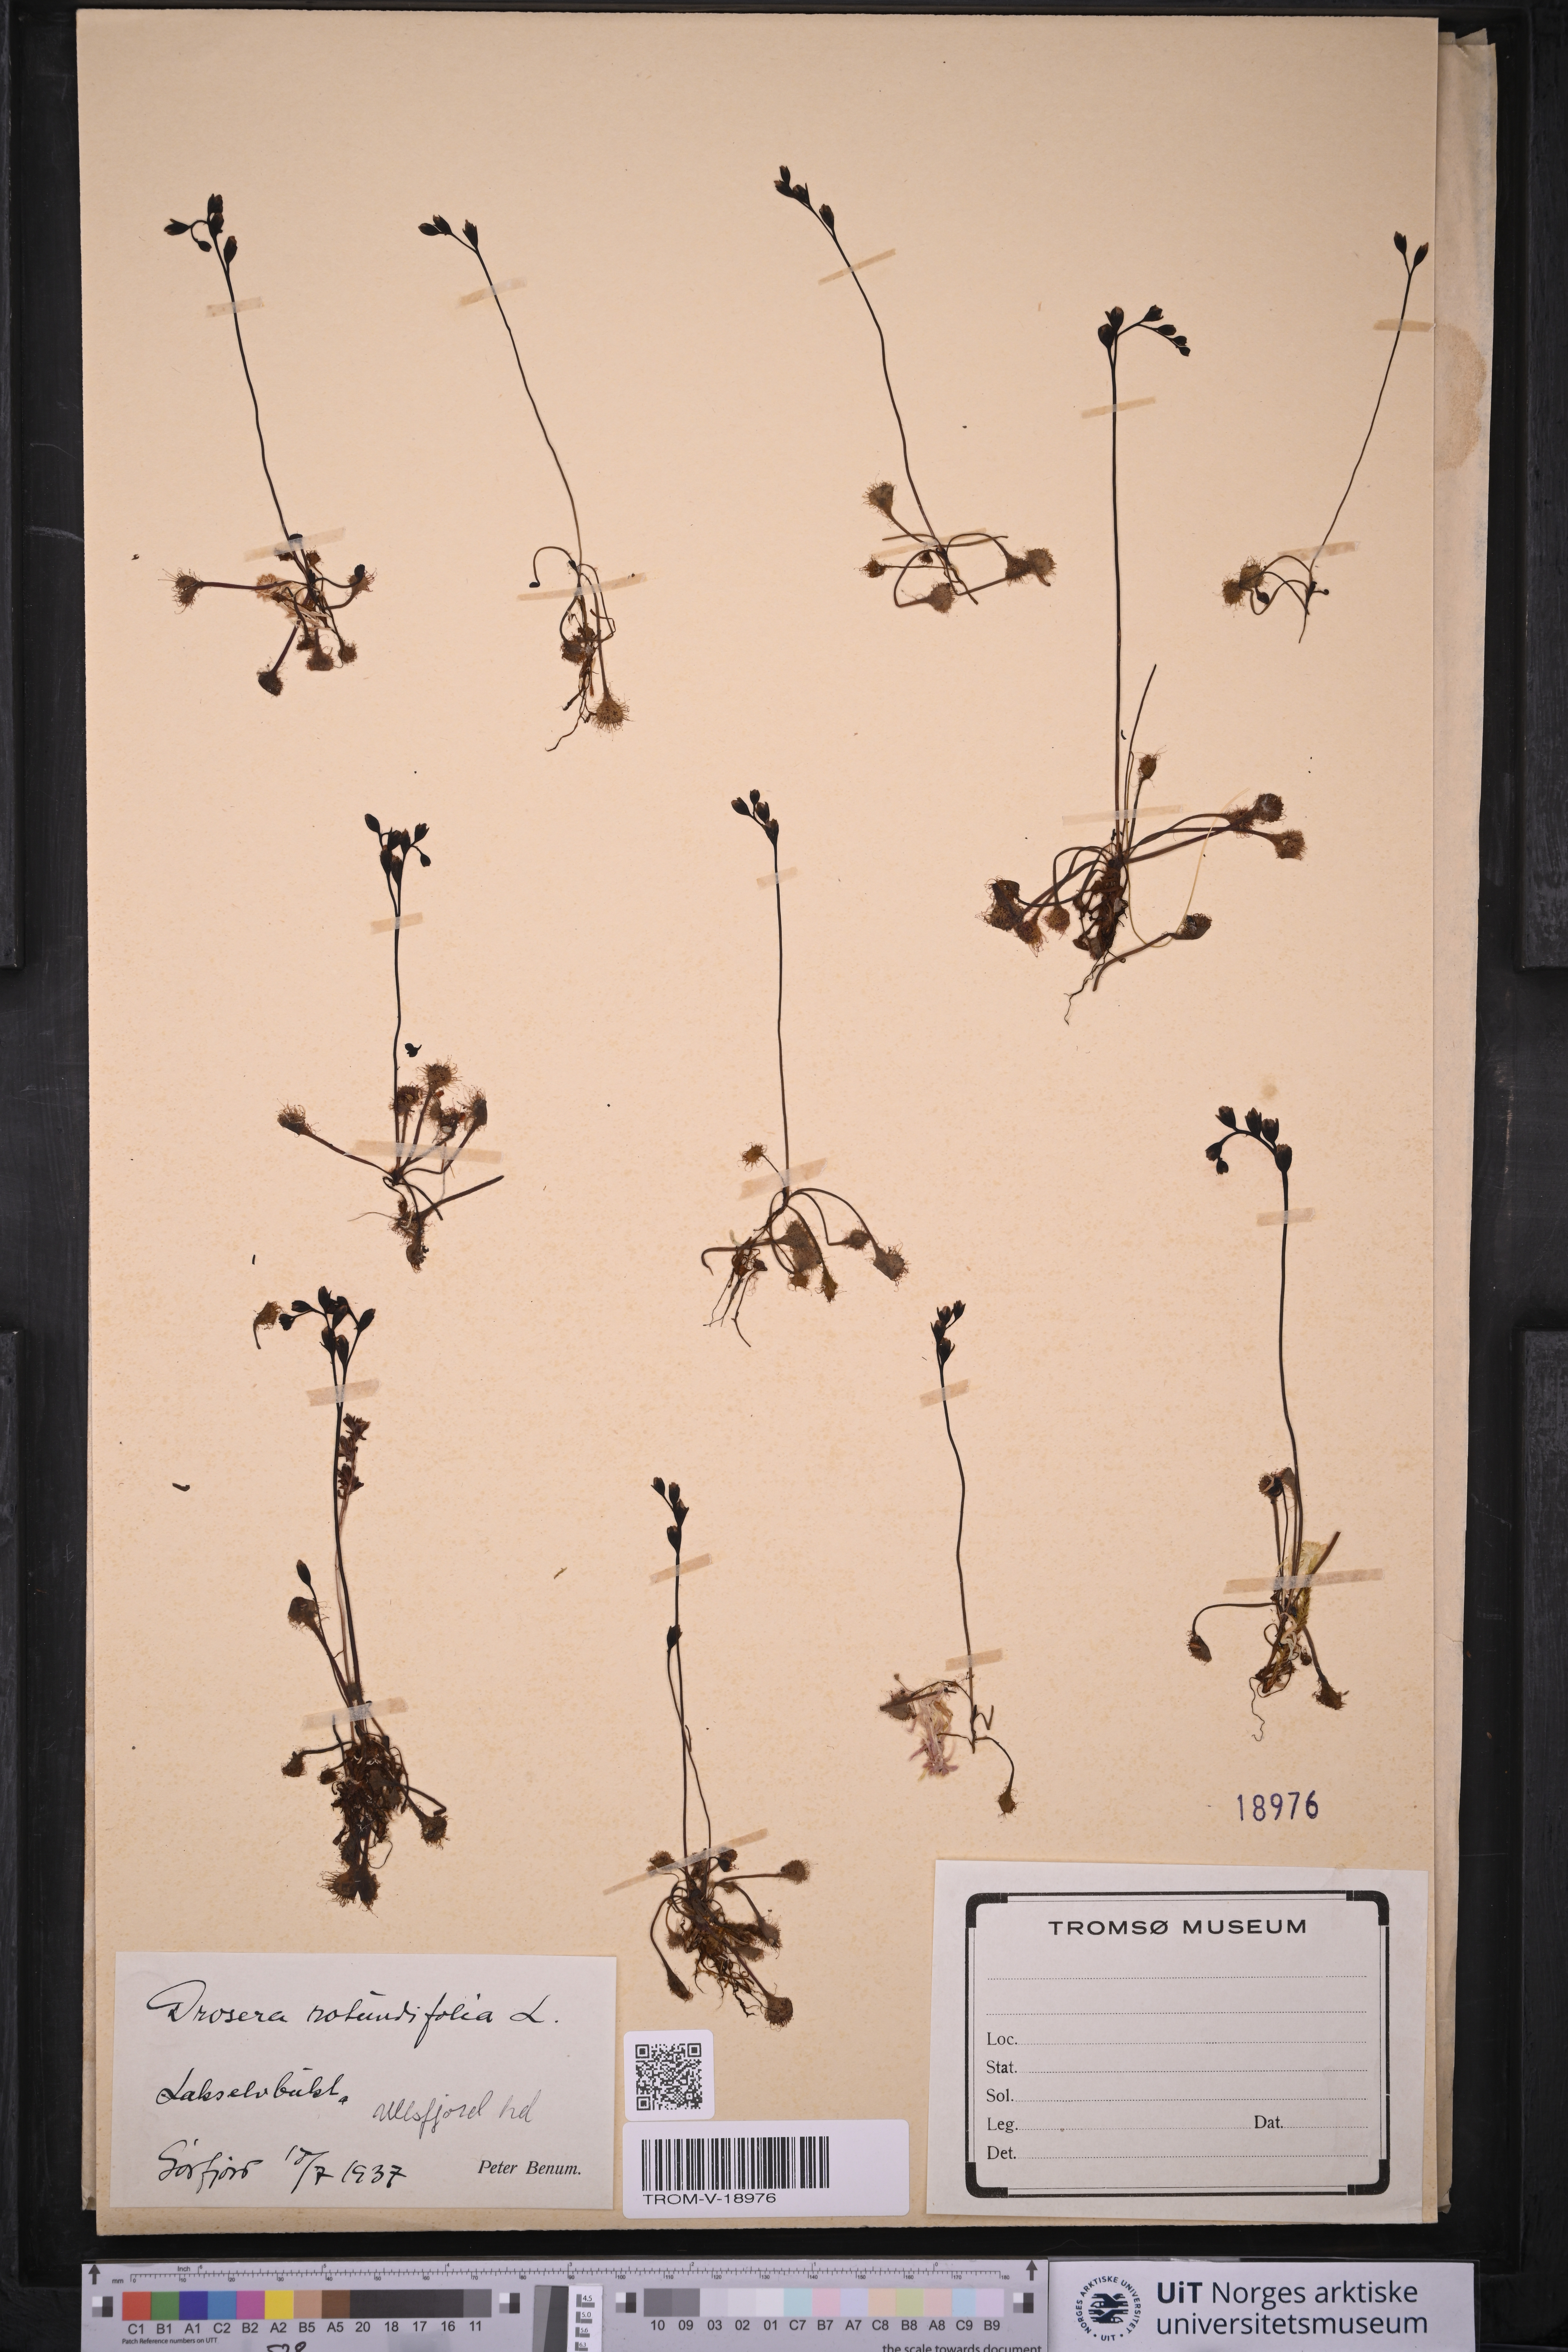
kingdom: Plantae
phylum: Tracheophyta
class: Magnoliopsida
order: Caryophyllales
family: Droseraceae
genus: Drosera
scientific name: Drosera rotundifolia
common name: Round-leaved sundew
